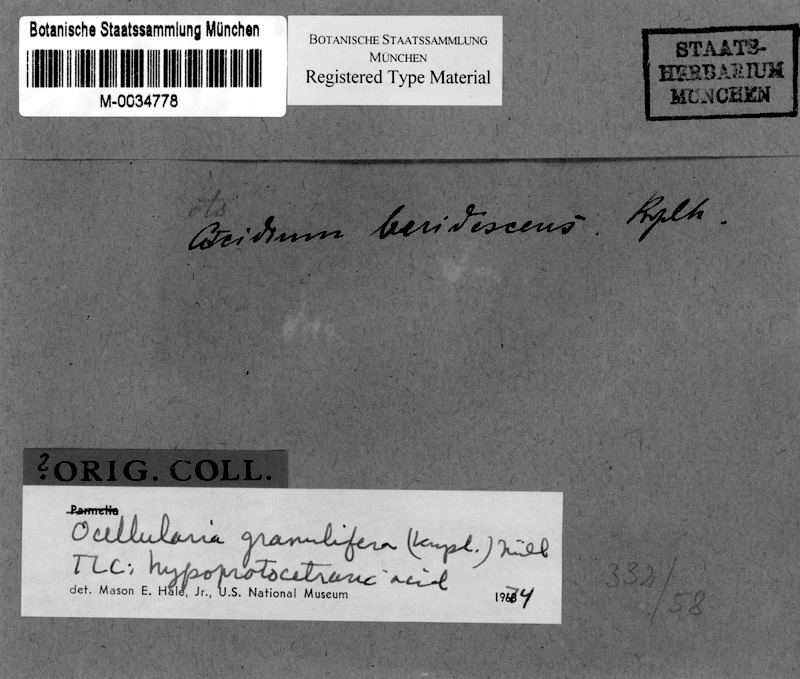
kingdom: Fungi
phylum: Ascomycota
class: Lecanoromycetes
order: Ostropales
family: Graphidaceae
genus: Ocellularia
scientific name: Ocellularia granulifera
